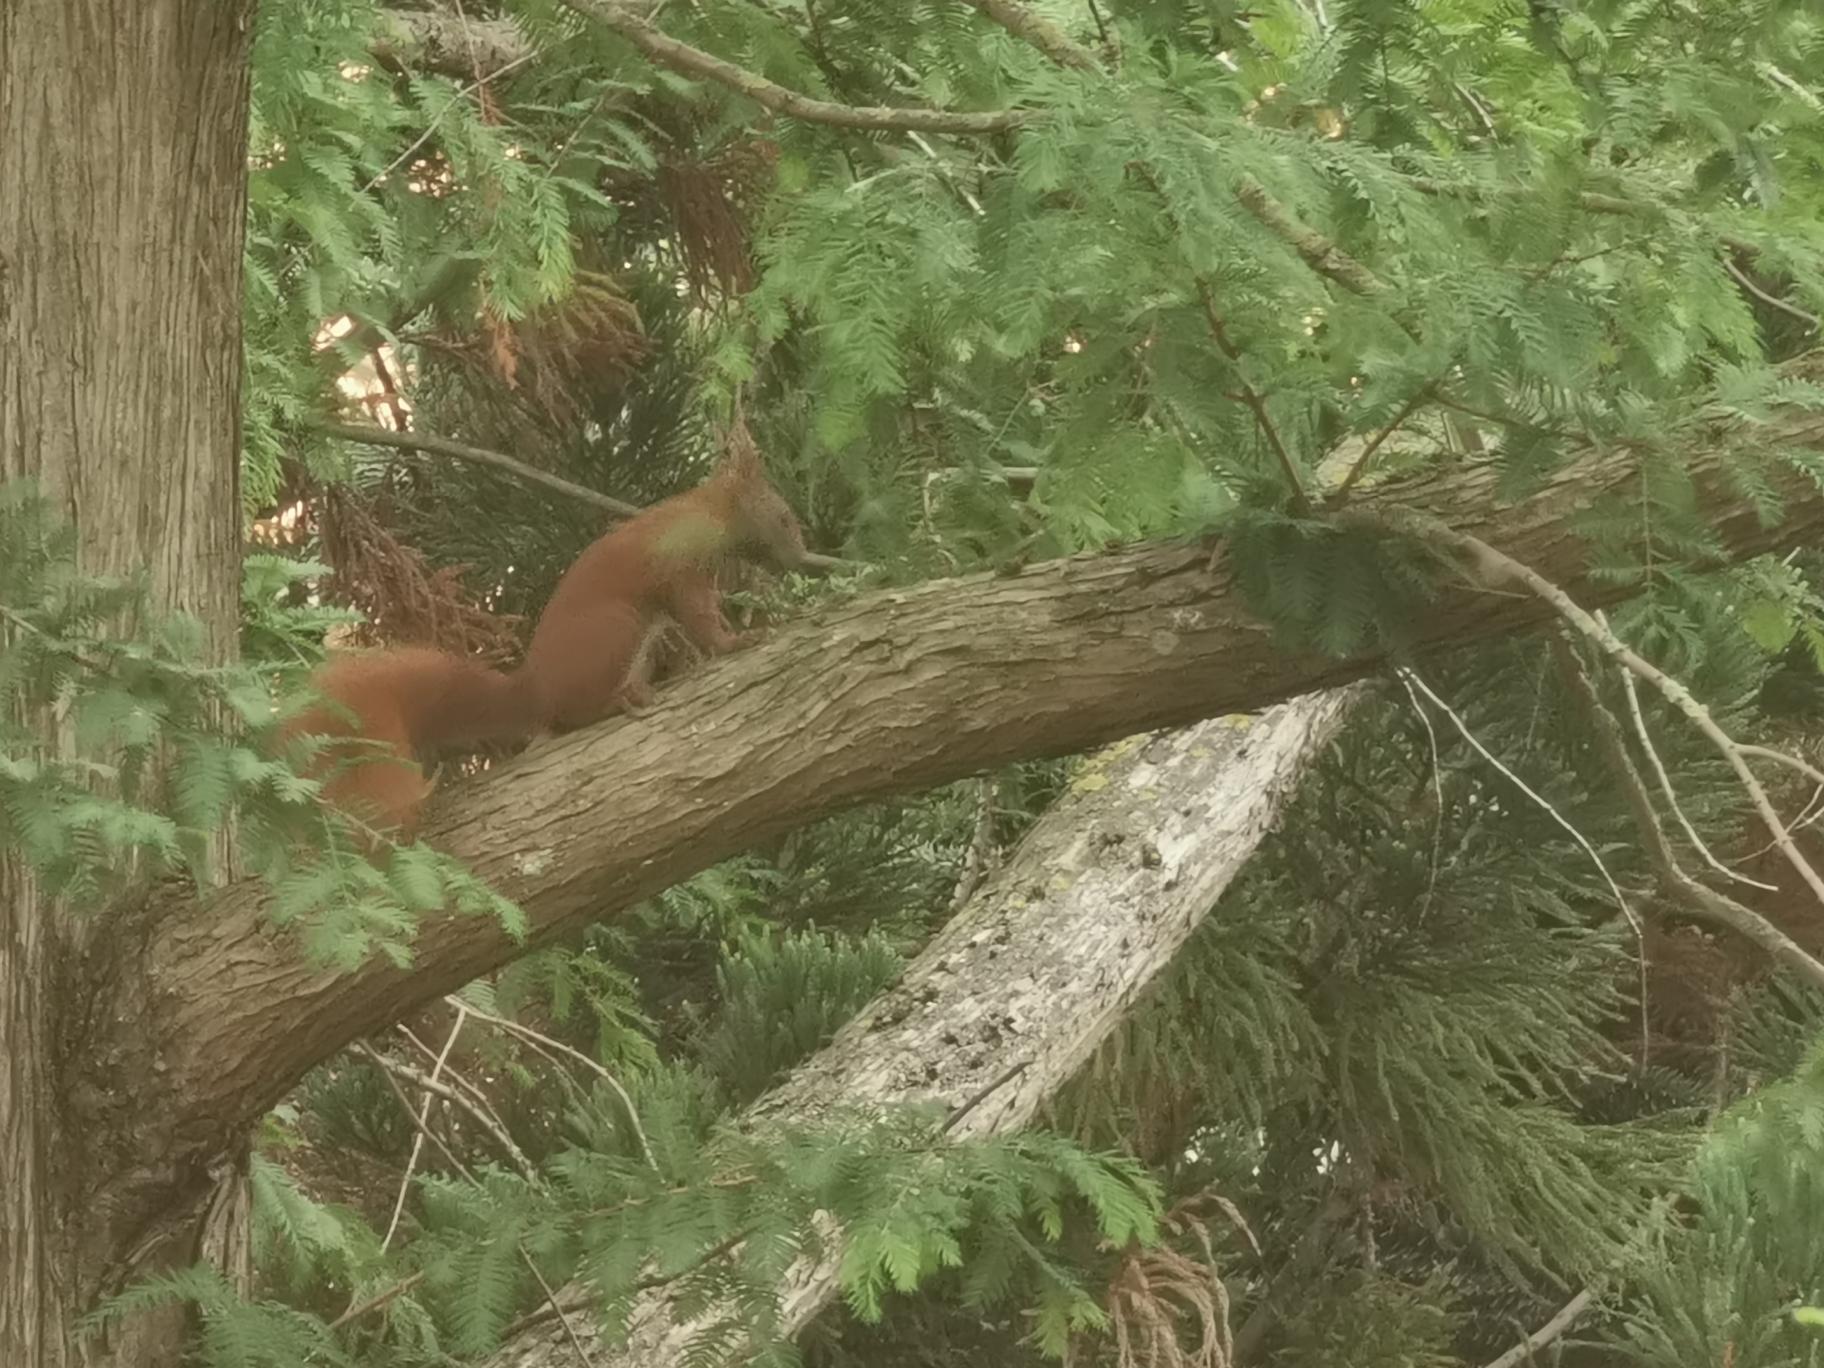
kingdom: Animalia
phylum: Chordata
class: Mammalia
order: Rodentia
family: Sciuridae
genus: Sciurus
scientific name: Sciurus vulgaris
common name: Egern
